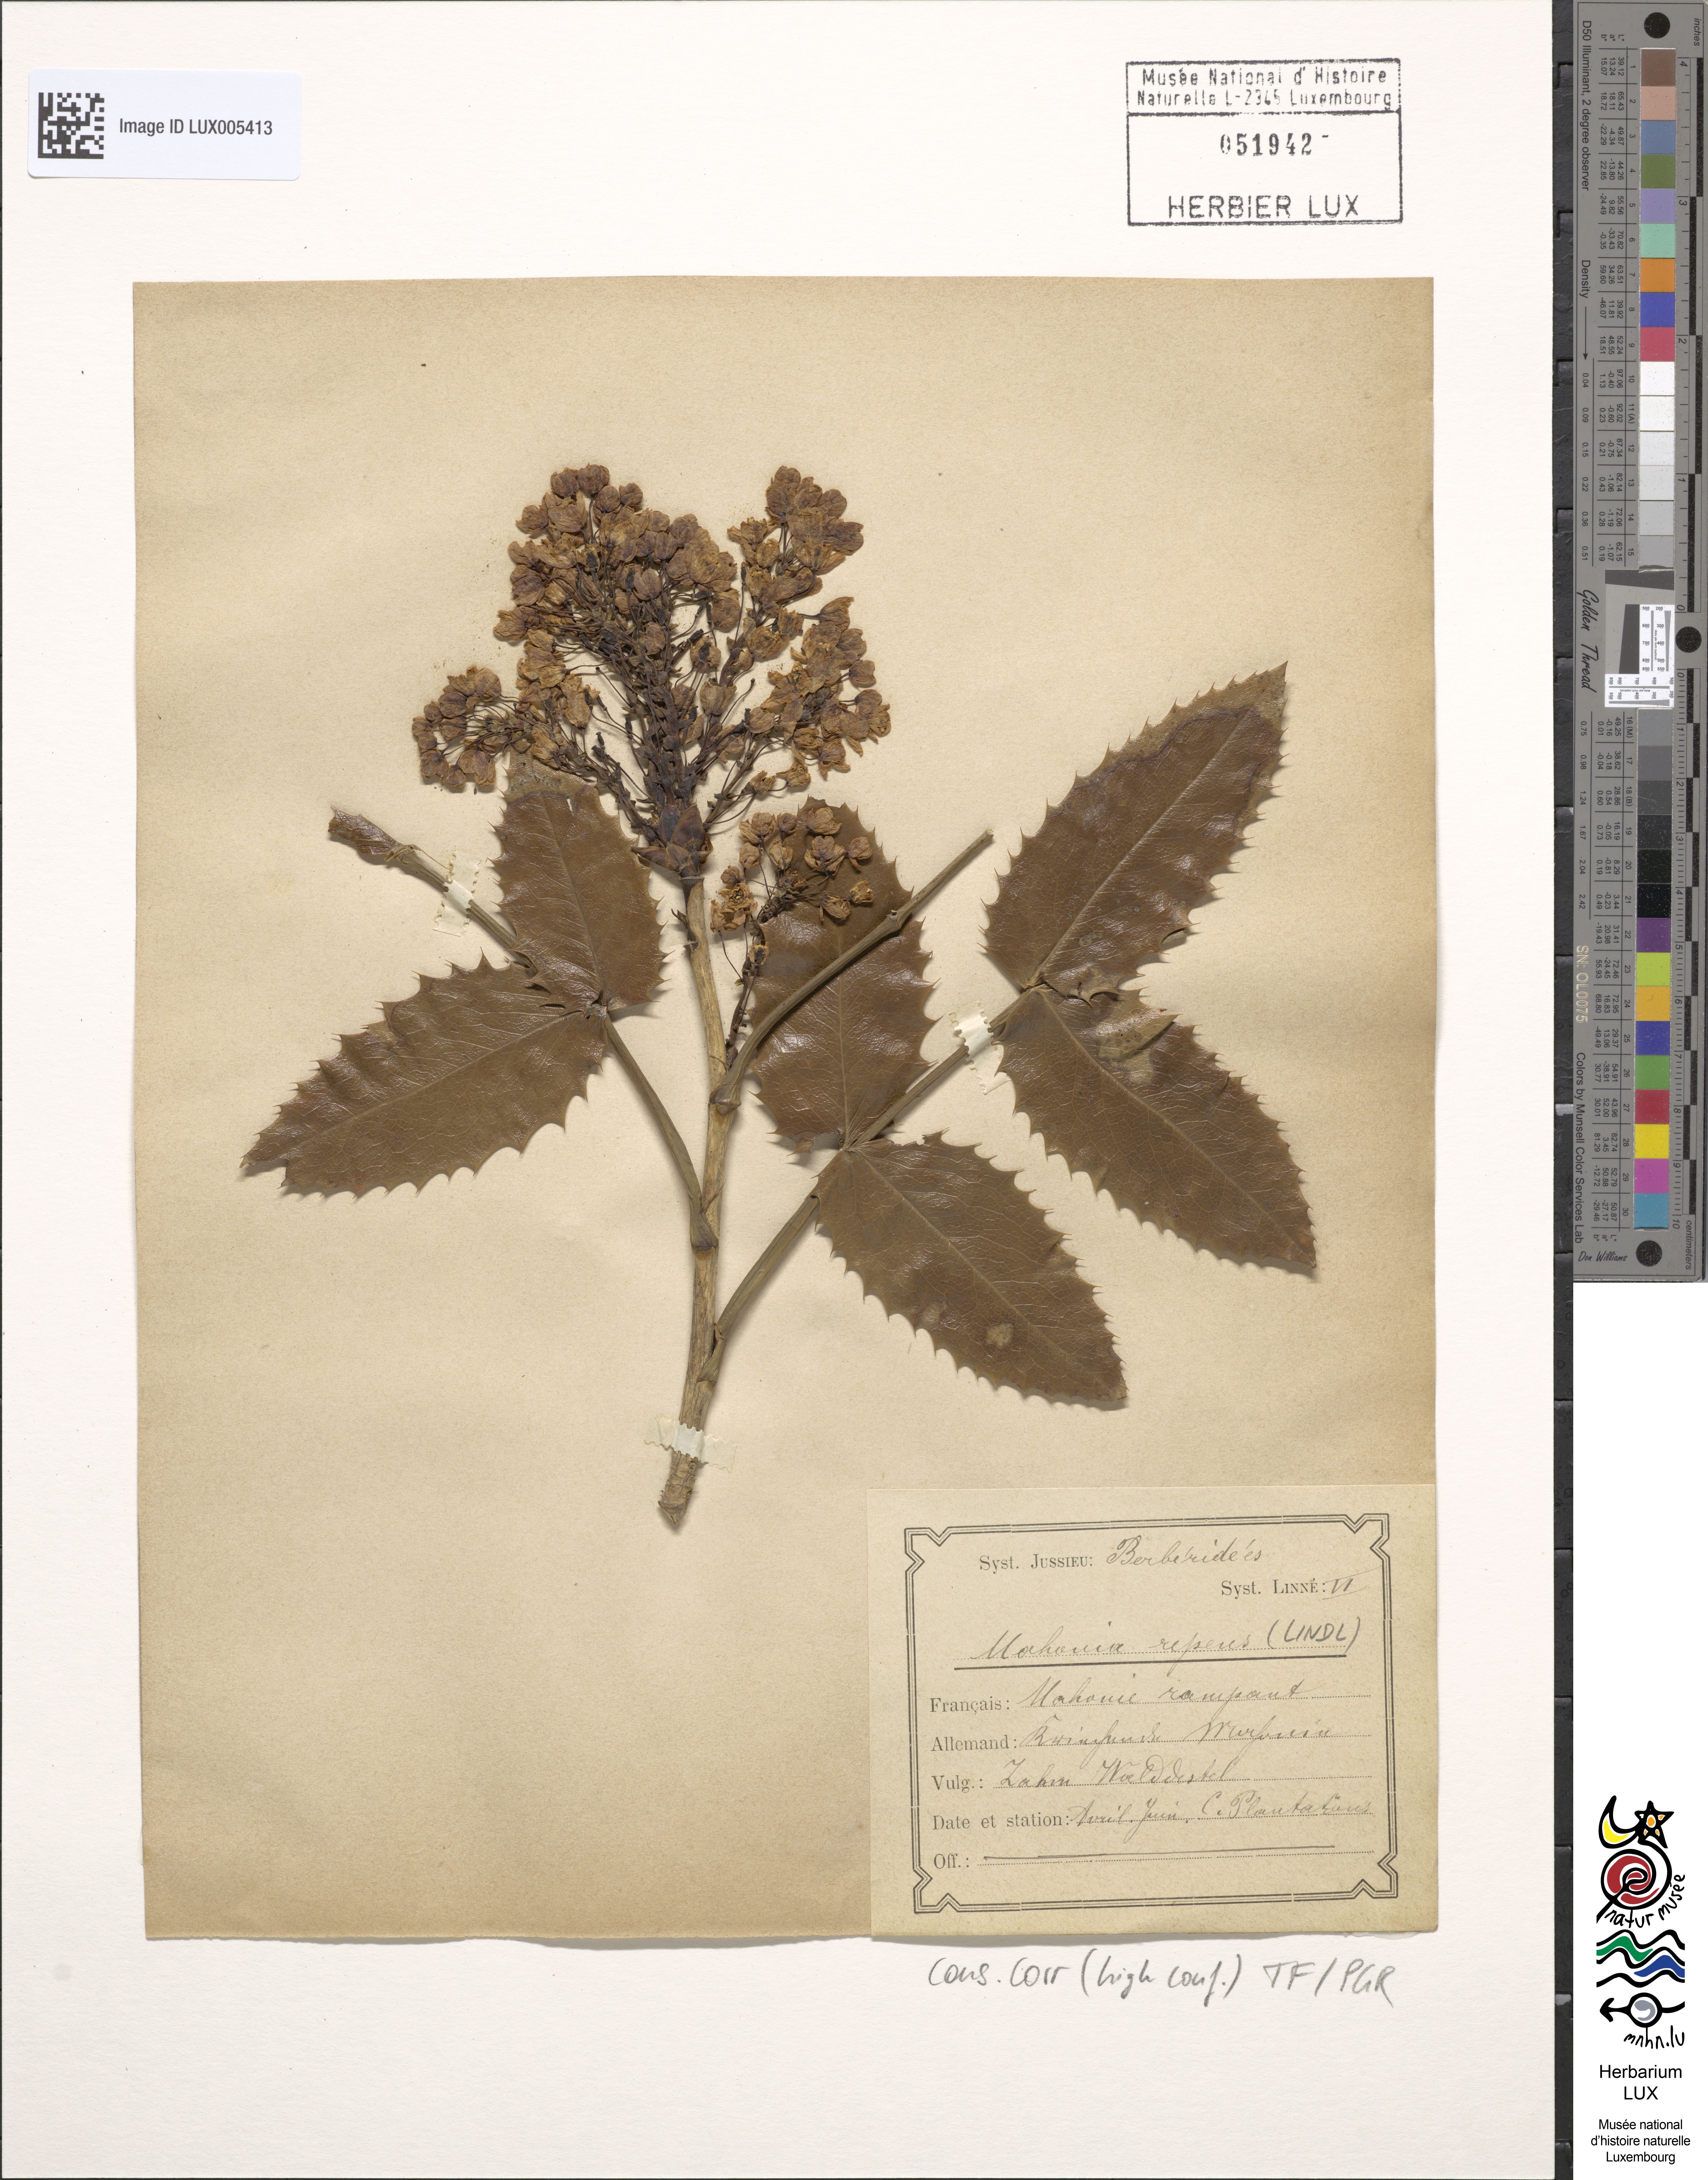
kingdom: Plantae
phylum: Tracheophyta
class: Magnoliopsida
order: Ranunculales
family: Berberidaceae
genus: Mahonia
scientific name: Mahonia repens
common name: Creeping oregon-grape
